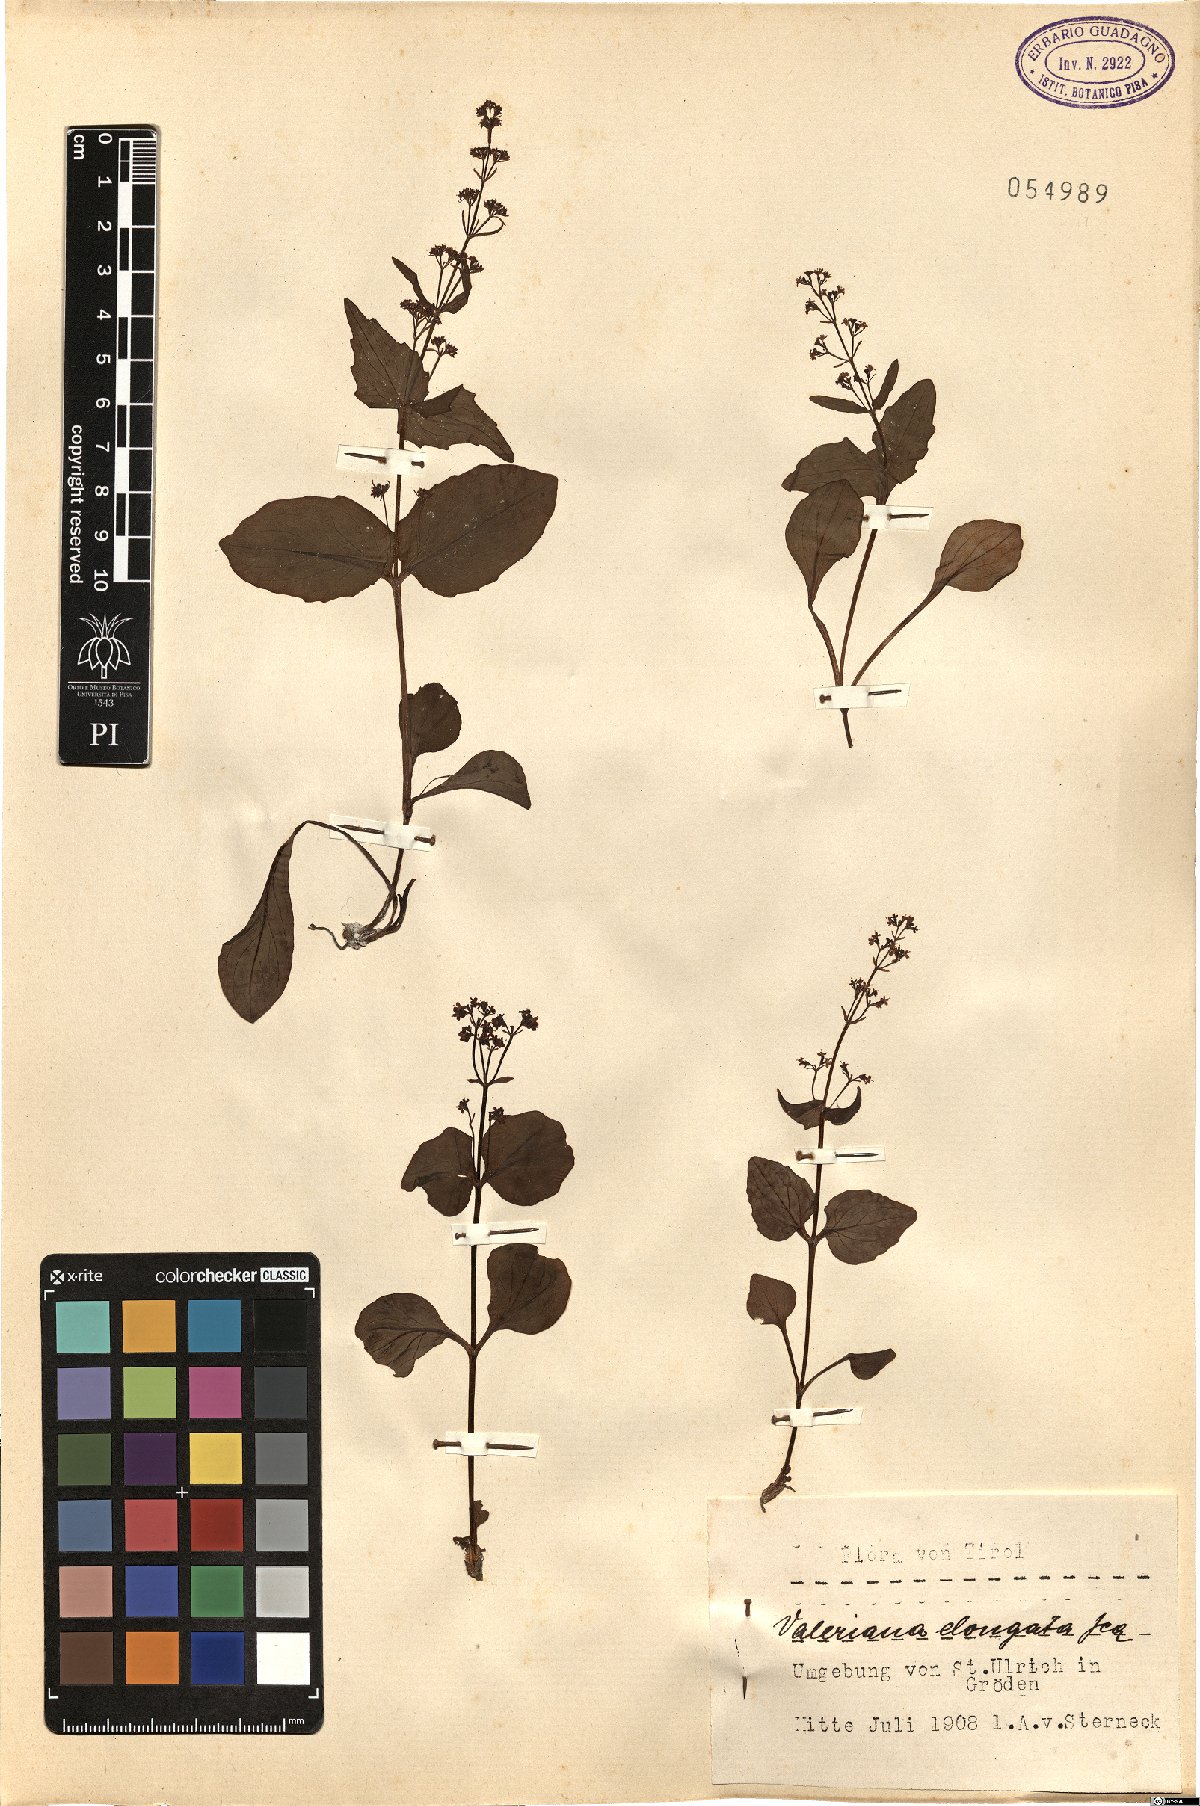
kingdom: Plantae
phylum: Tracheophyta
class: Magnoliopsida
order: Dipsacales
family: Caprifoliaceae
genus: Valeriana
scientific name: Valeriana elongata
